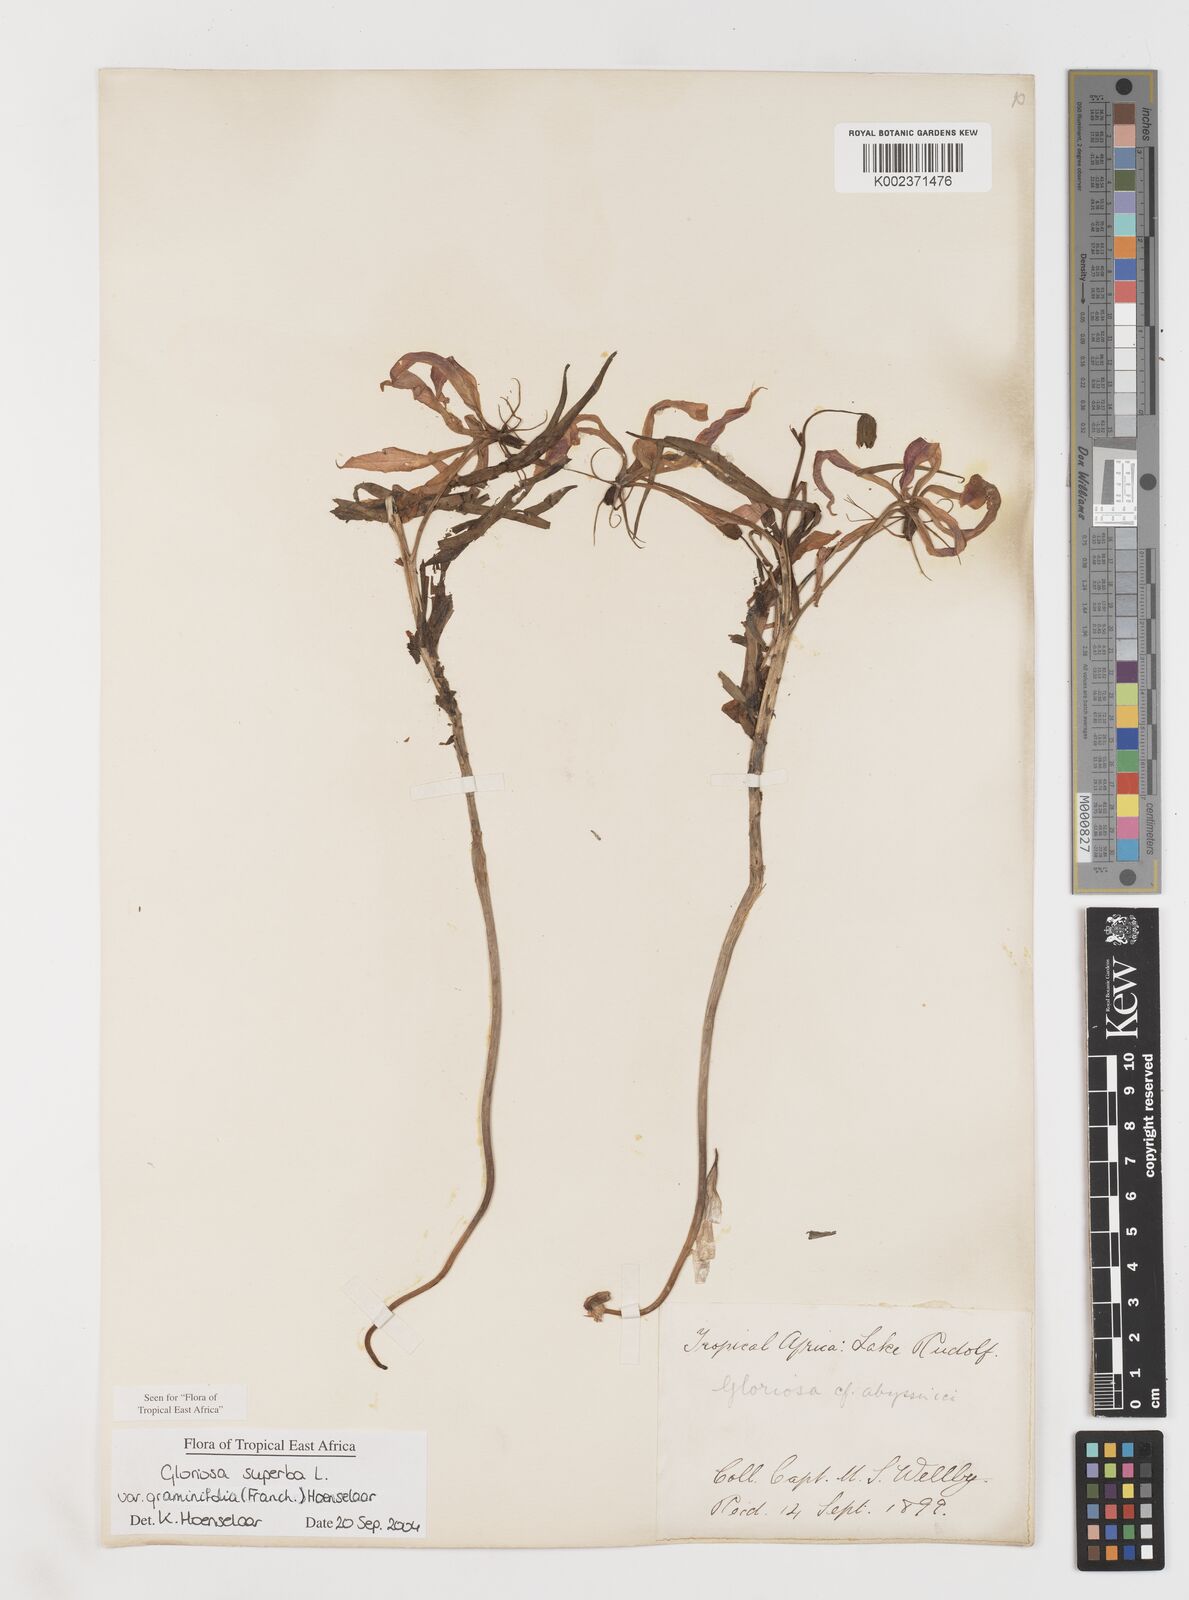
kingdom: Plantae
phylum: Tracheophyta
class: Liliopsida
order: Liliales
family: Colchicaceae
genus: Gloriosa
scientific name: Gloriosa baudii
